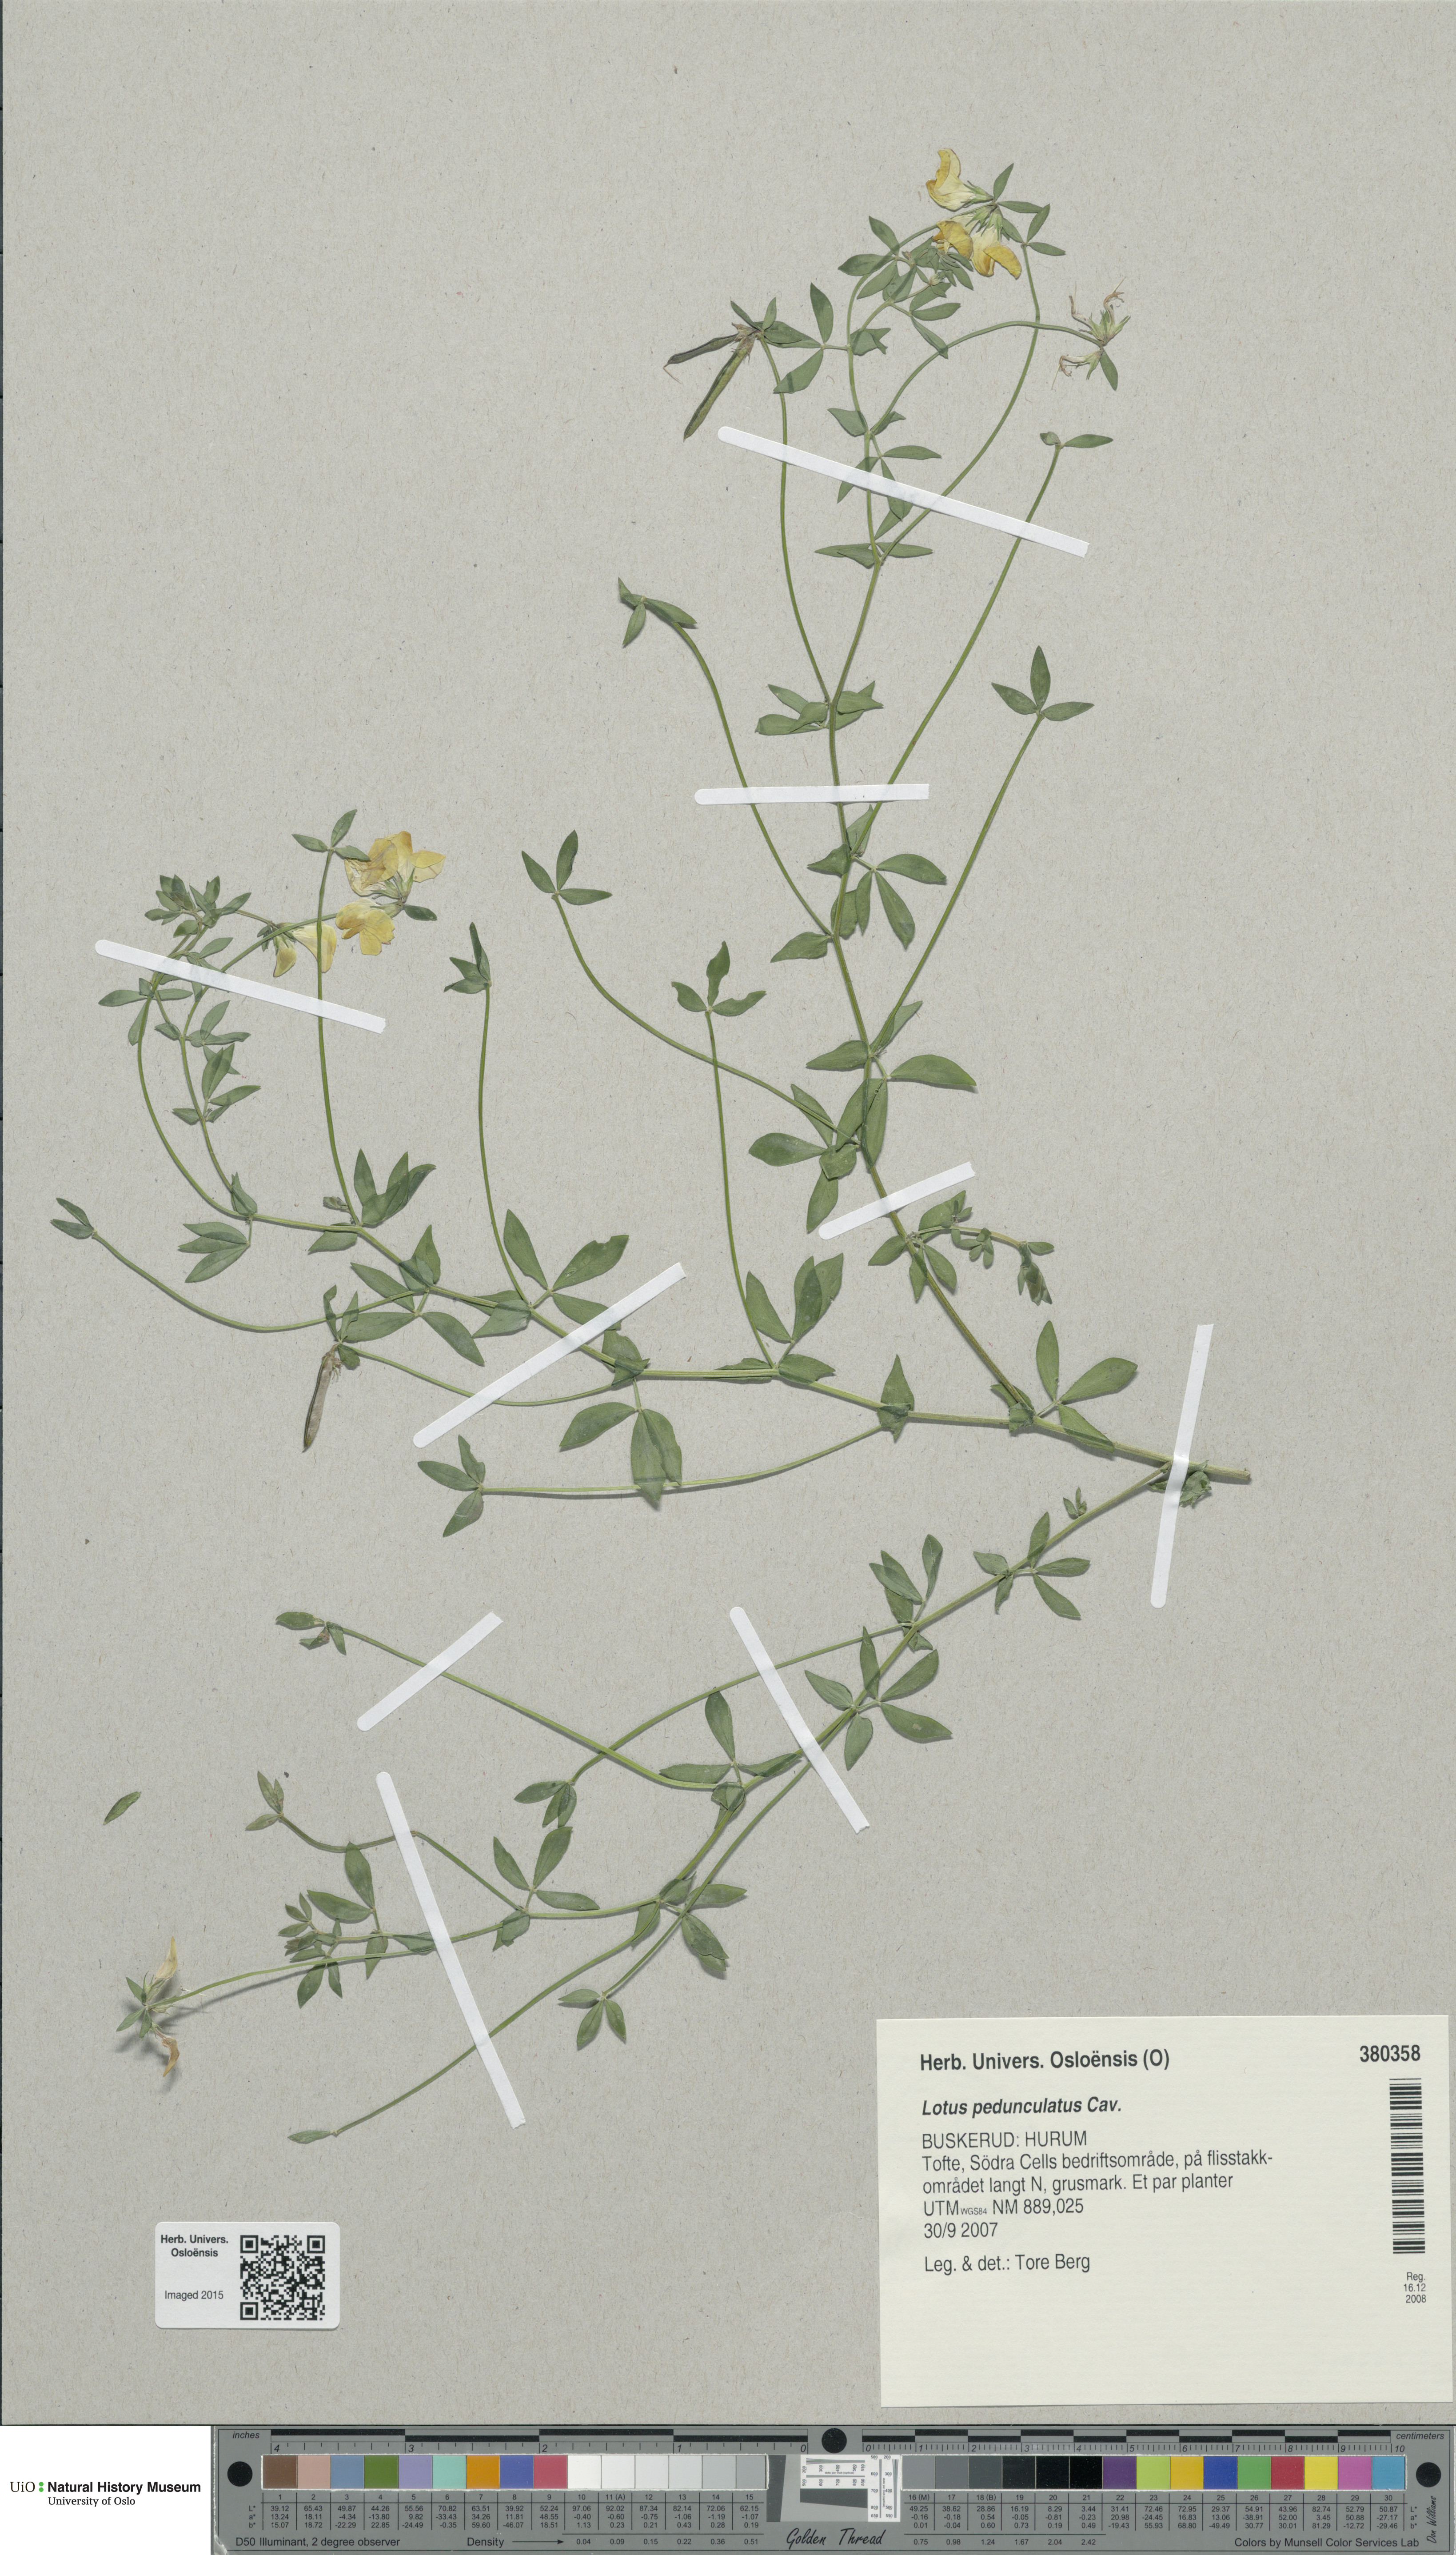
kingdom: Plantae
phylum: Tracheophyta
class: Magnoliopsida
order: Fabales
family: Fabaceae
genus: Lotus
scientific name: Lotus pedunculatus
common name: Greater birdsfoot-trefoil
